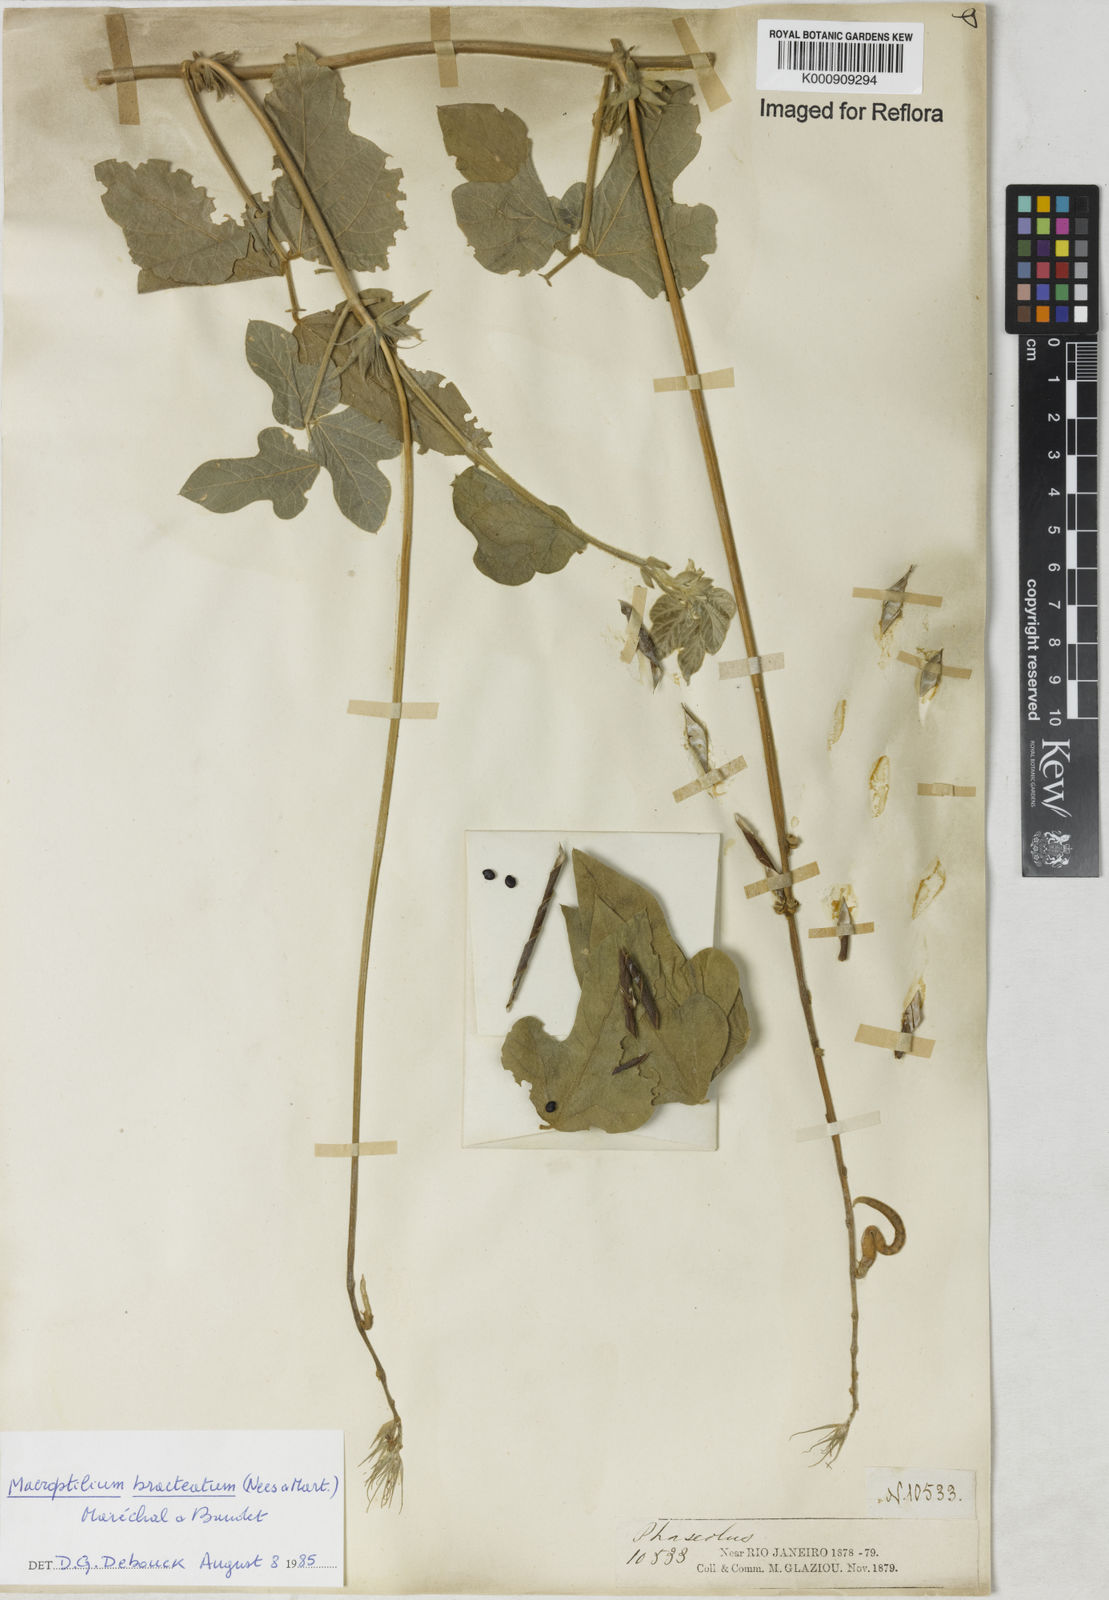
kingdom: Plantae
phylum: Tracheophyta
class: Magnoliopsida
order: Fabales
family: Fabaceae
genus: Macroptilium
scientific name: Macroptilium
